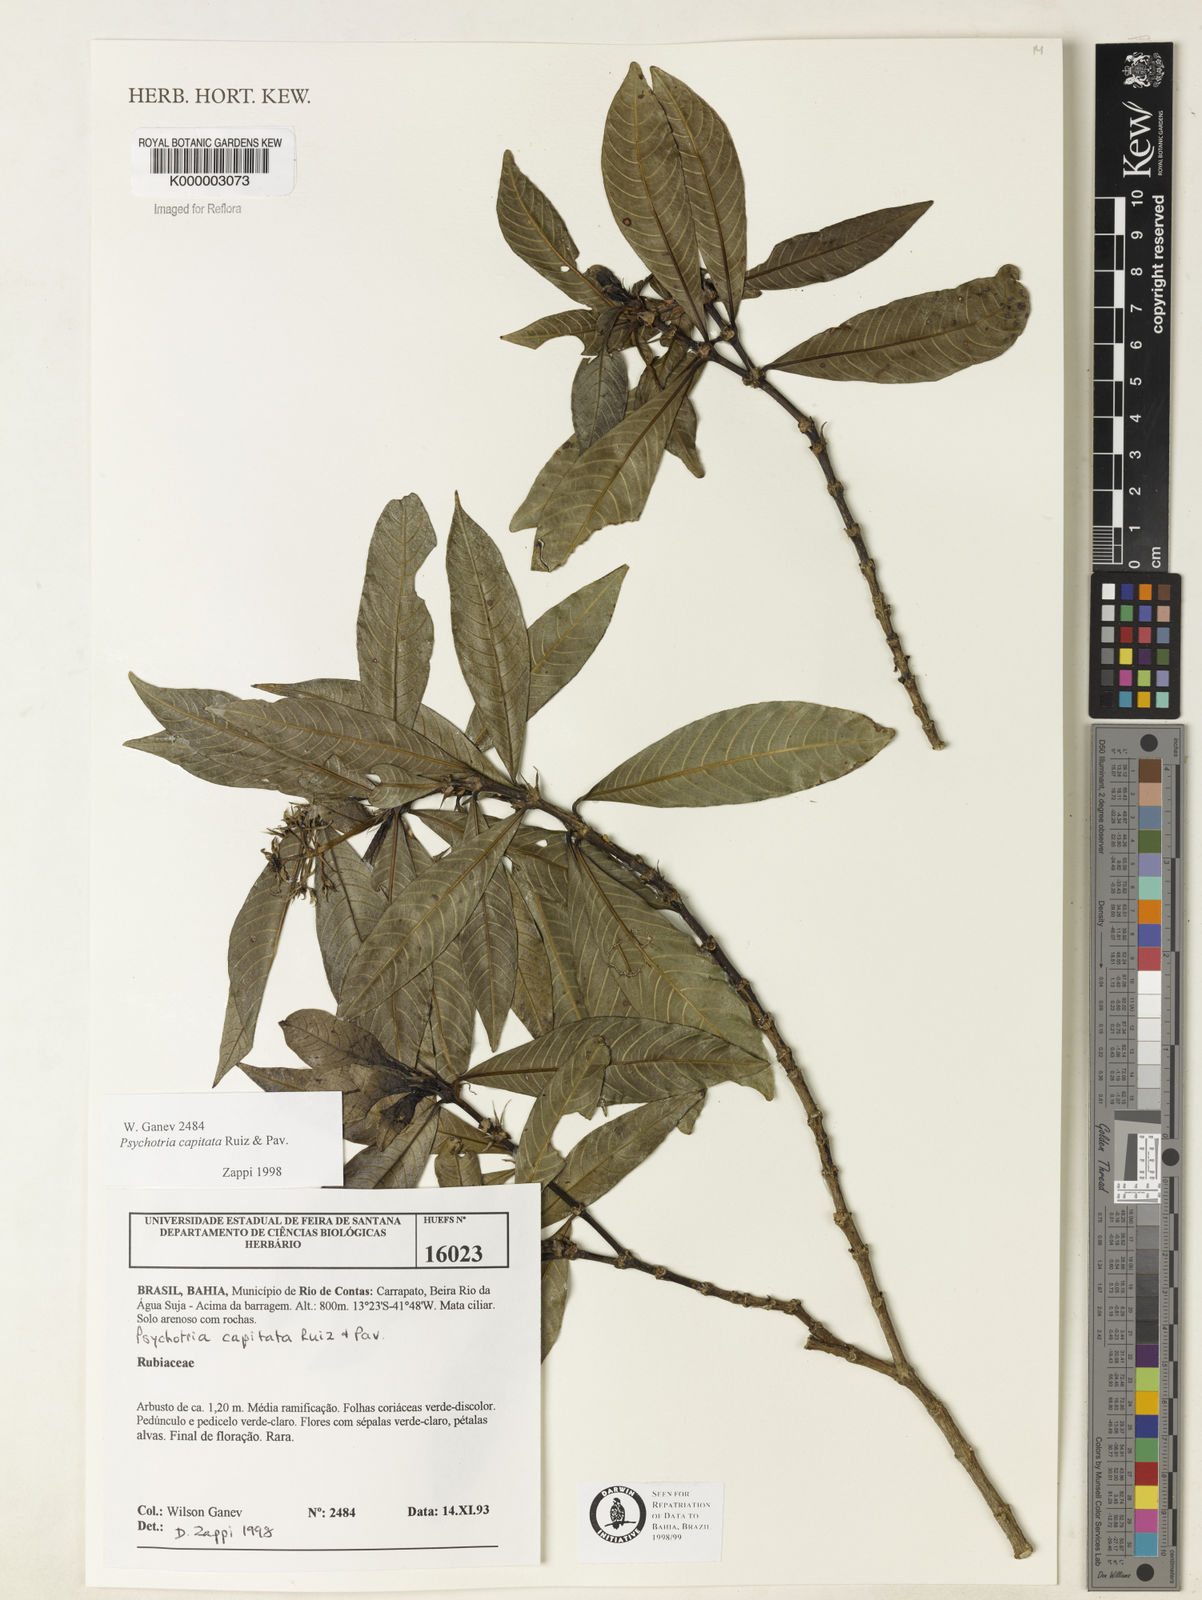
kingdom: Plantae
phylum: Tracheophyta
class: Magnoliopsida
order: Gentianales
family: Rubiaceae
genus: Psychotria
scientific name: Psychotria
